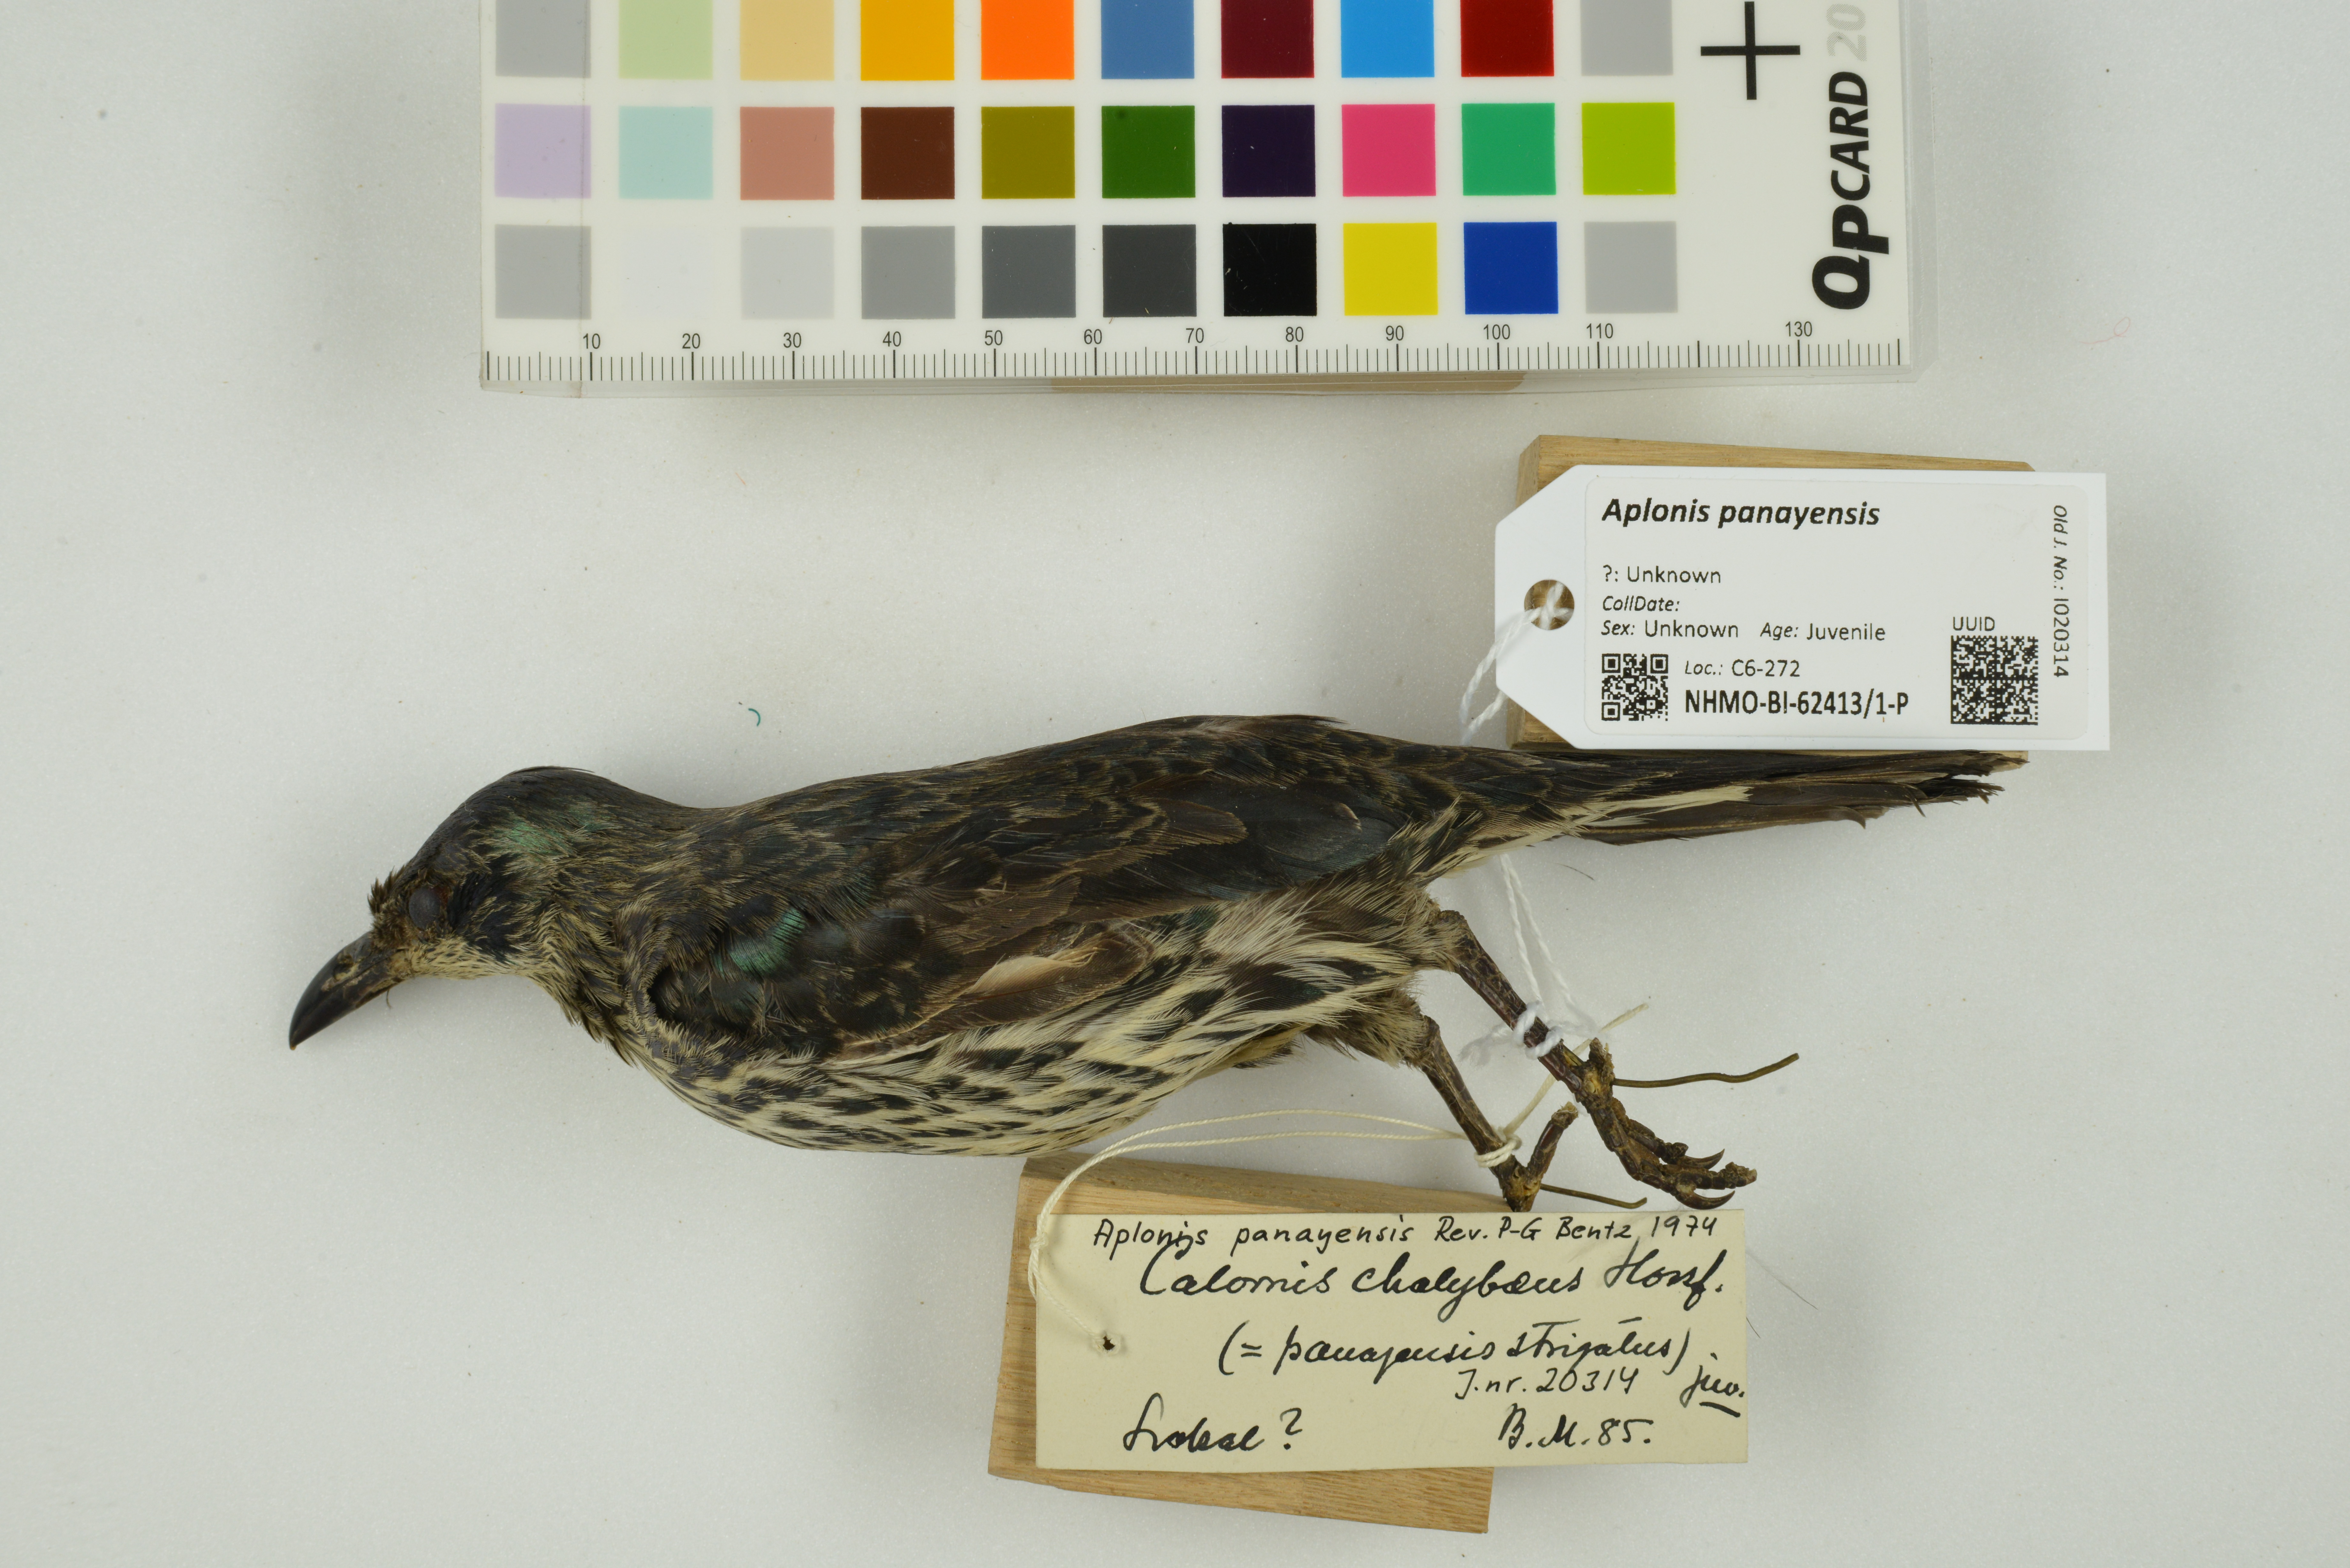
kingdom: Animalia
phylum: Chordata
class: Aves
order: Passeriformes
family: Sturnidae
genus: Aplonis
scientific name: Aplonis panayensis
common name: Asian glossy starling
